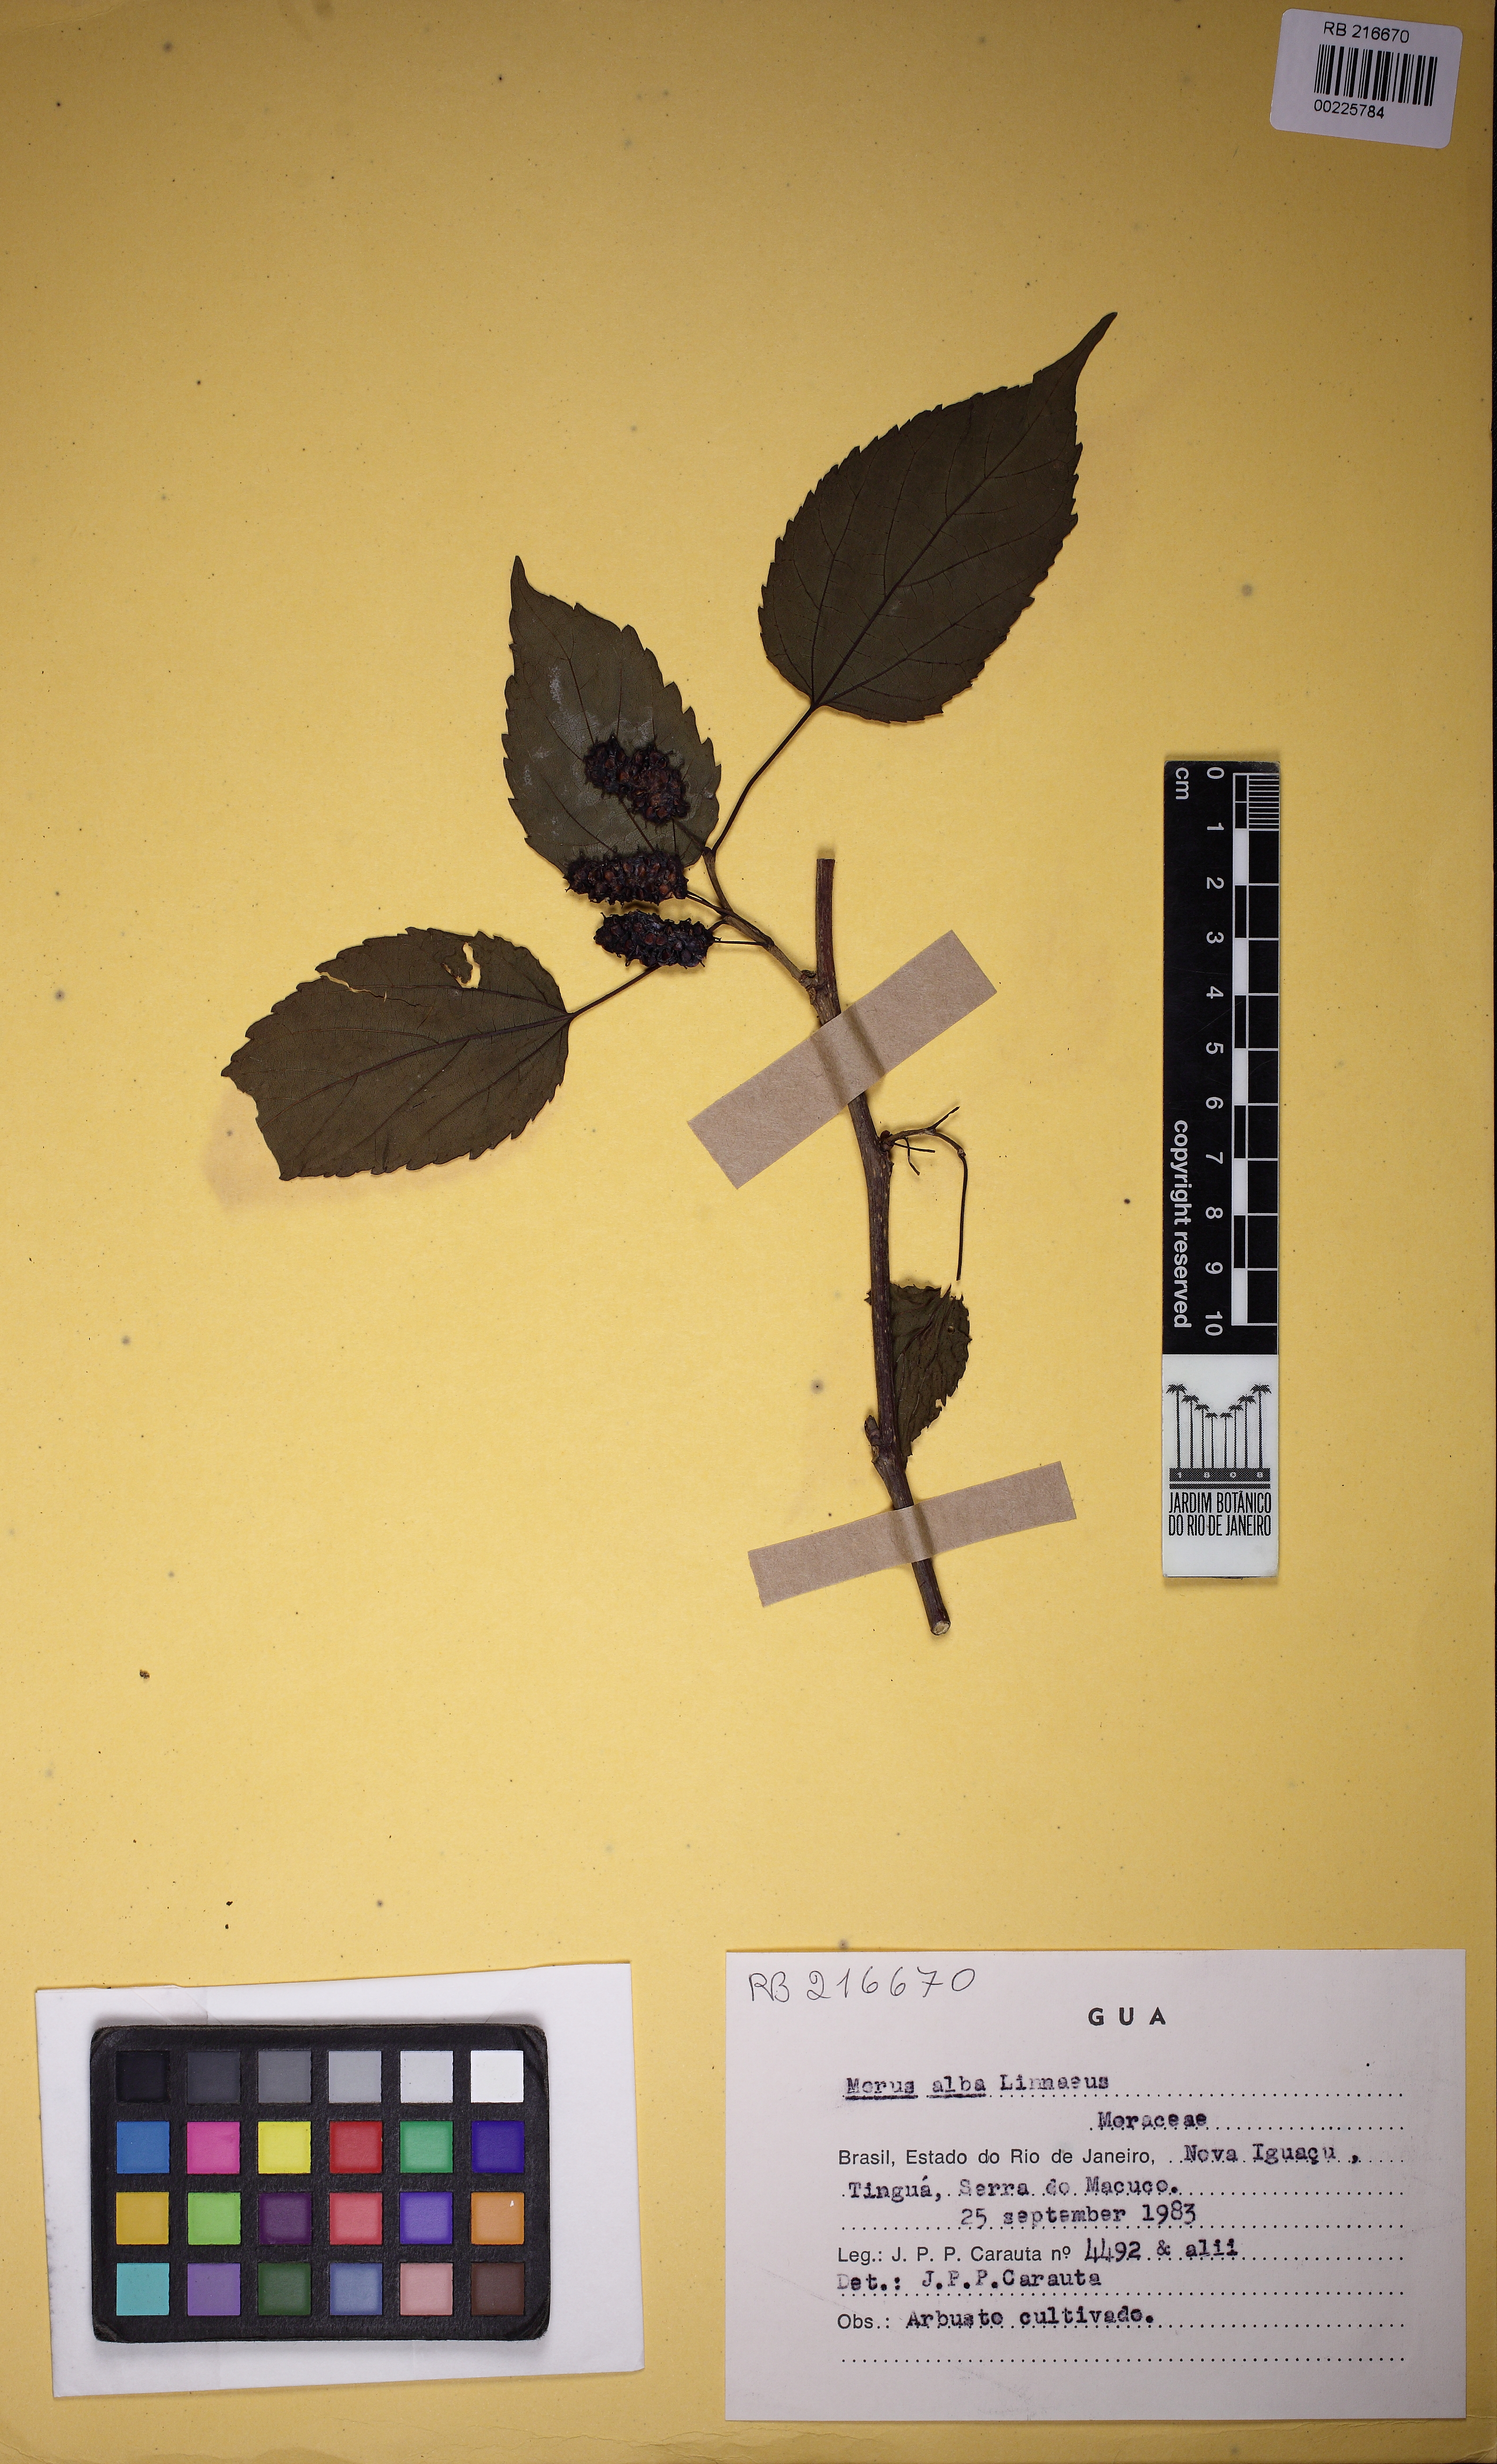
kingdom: Plantae
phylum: Tracheophyta
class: Magnoliopsida
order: Rosales
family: Moraceae
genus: Morus
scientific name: Morus alba
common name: White mulberry
